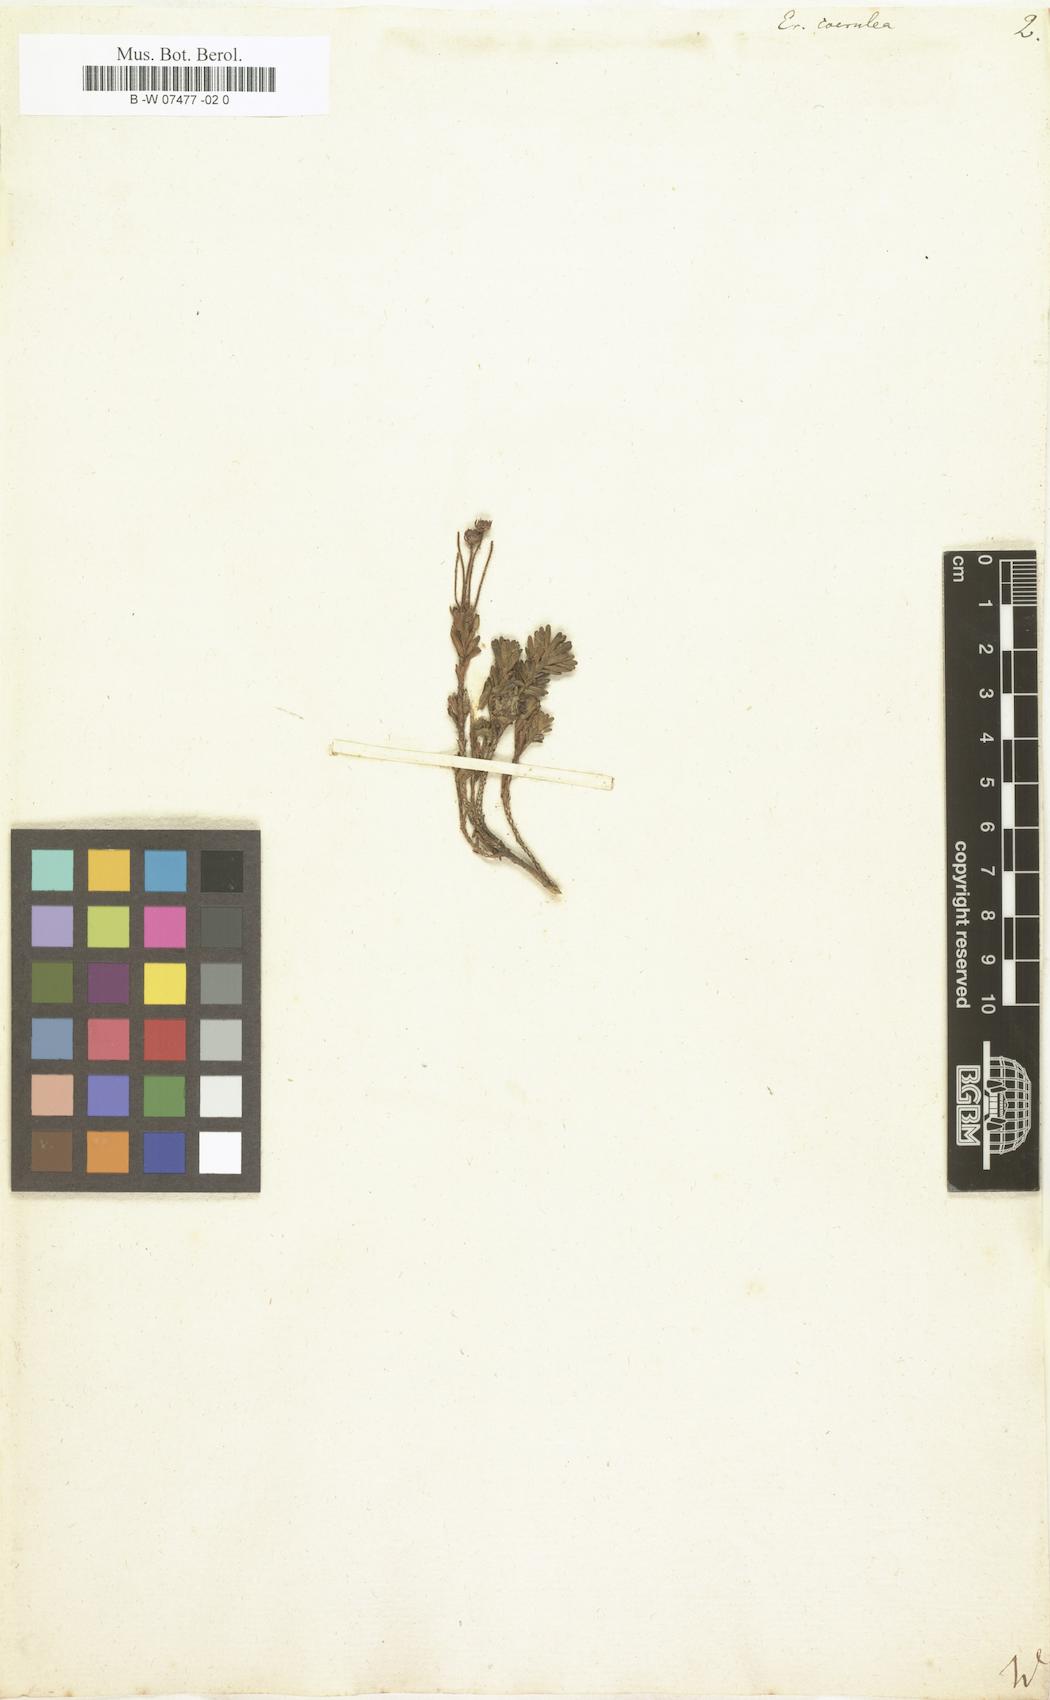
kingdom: Plantae
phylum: Tracheophyta
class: Magnoliopsida
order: Ericales
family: Ericaceae
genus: Phyllodoce
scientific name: Phyllodoce caerulea
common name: Blue heath
